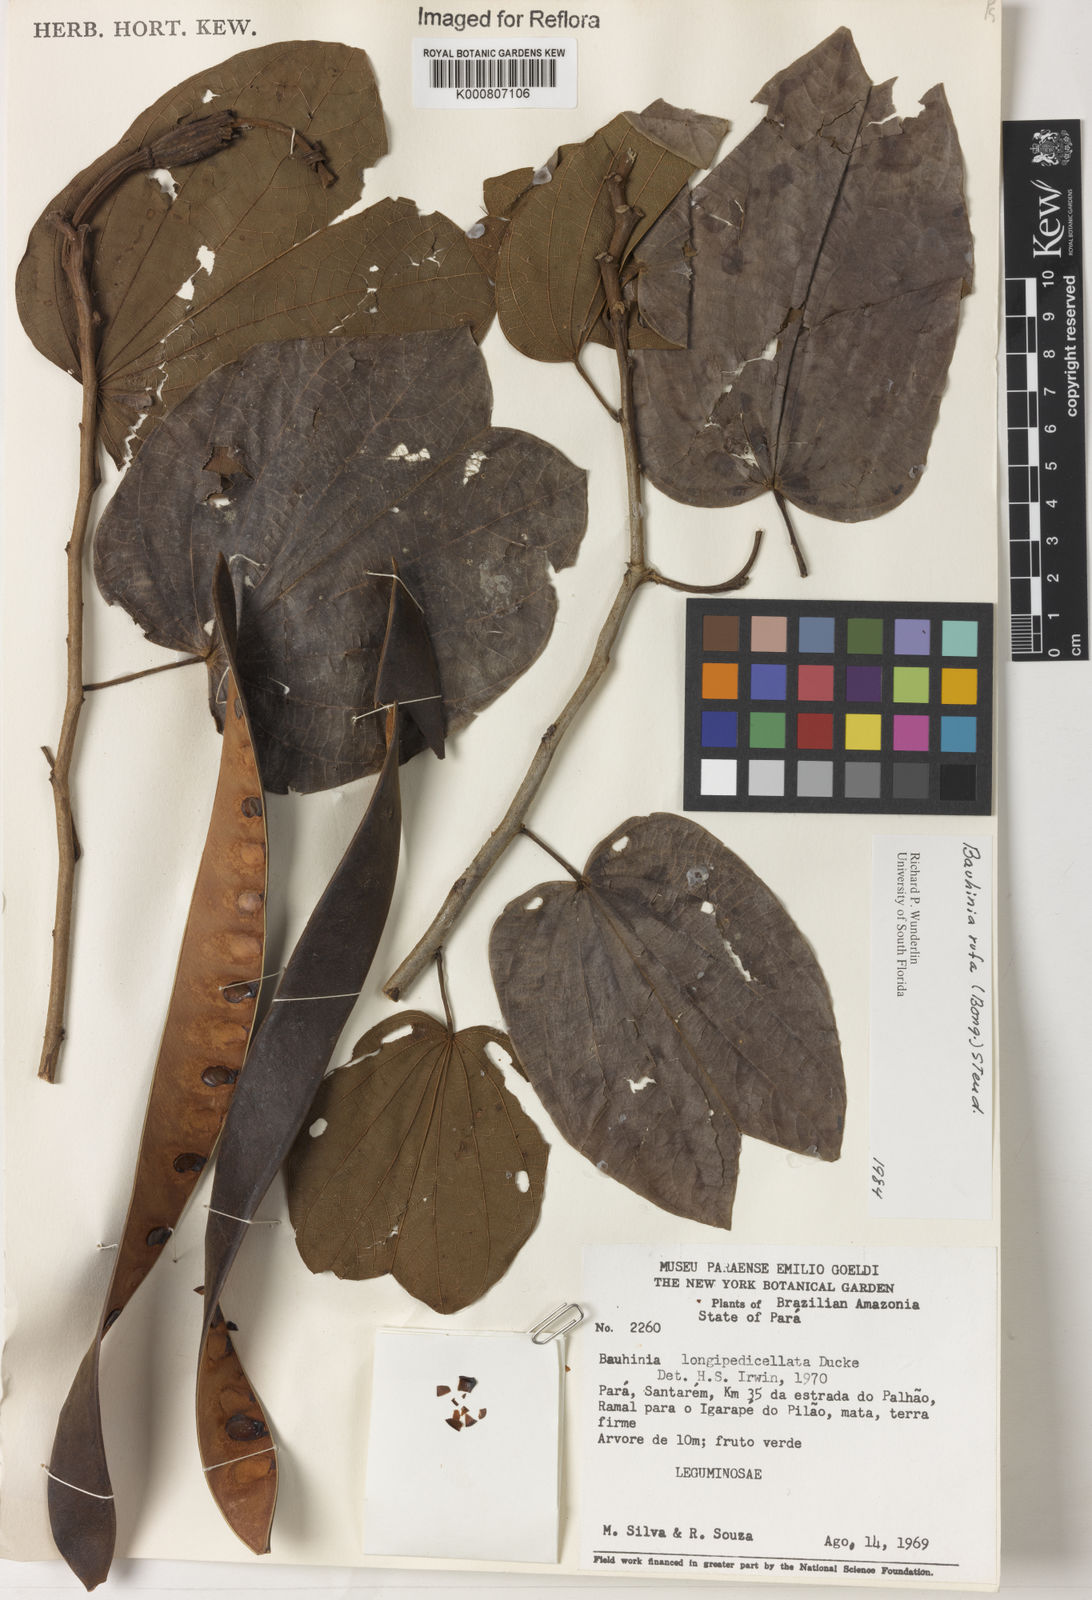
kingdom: Plantae
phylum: Tracheophyta
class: Magnoliopsida
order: Fabales
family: Fabaceae
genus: Bauhinia
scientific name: Bauhinia rufa
